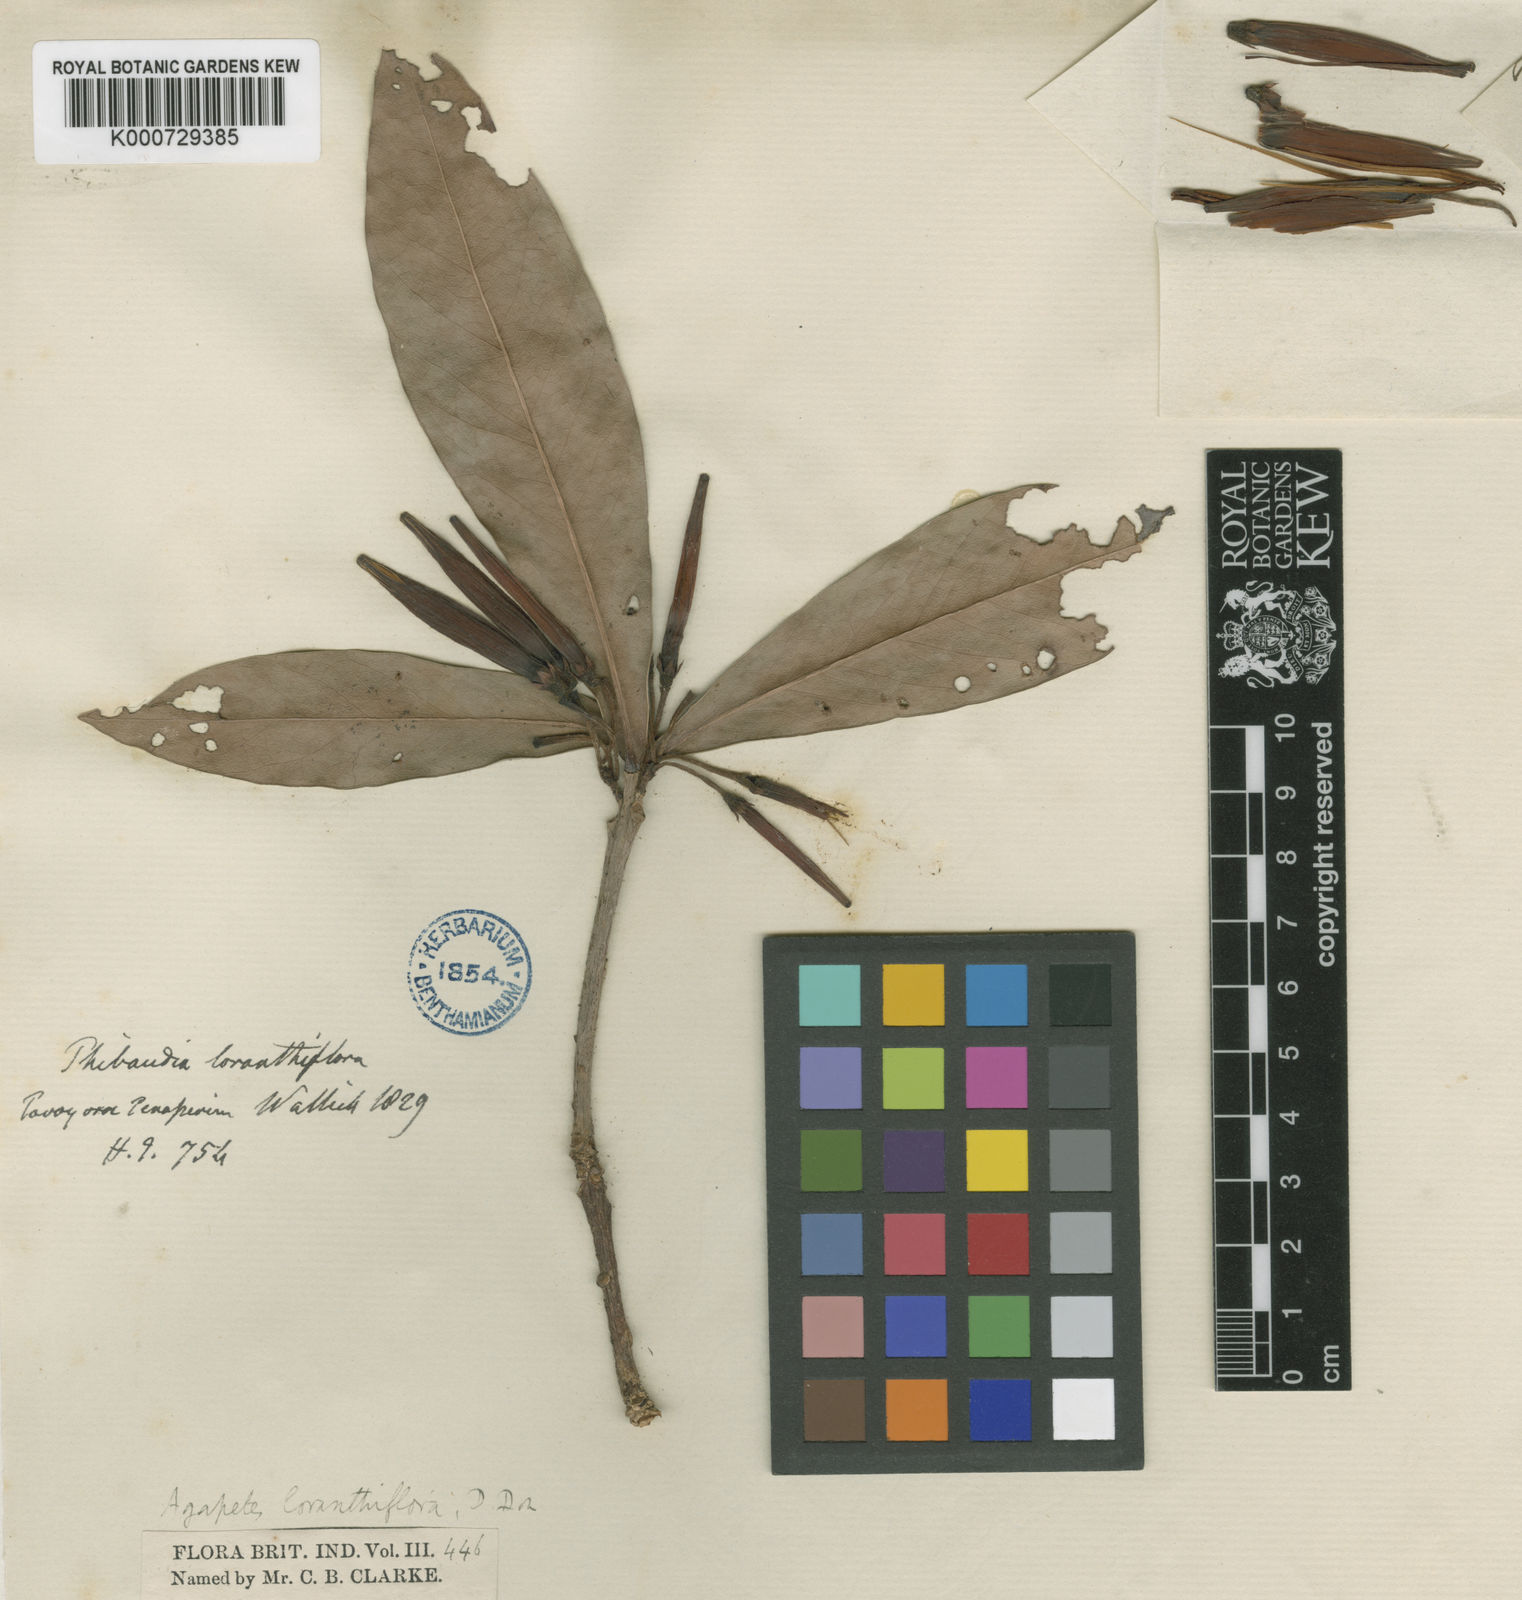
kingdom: Plantae
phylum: Tracheophyta
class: Magnoliopsida
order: Ericales
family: Ericaceae
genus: Agapetes
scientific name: Agapetes variegata
